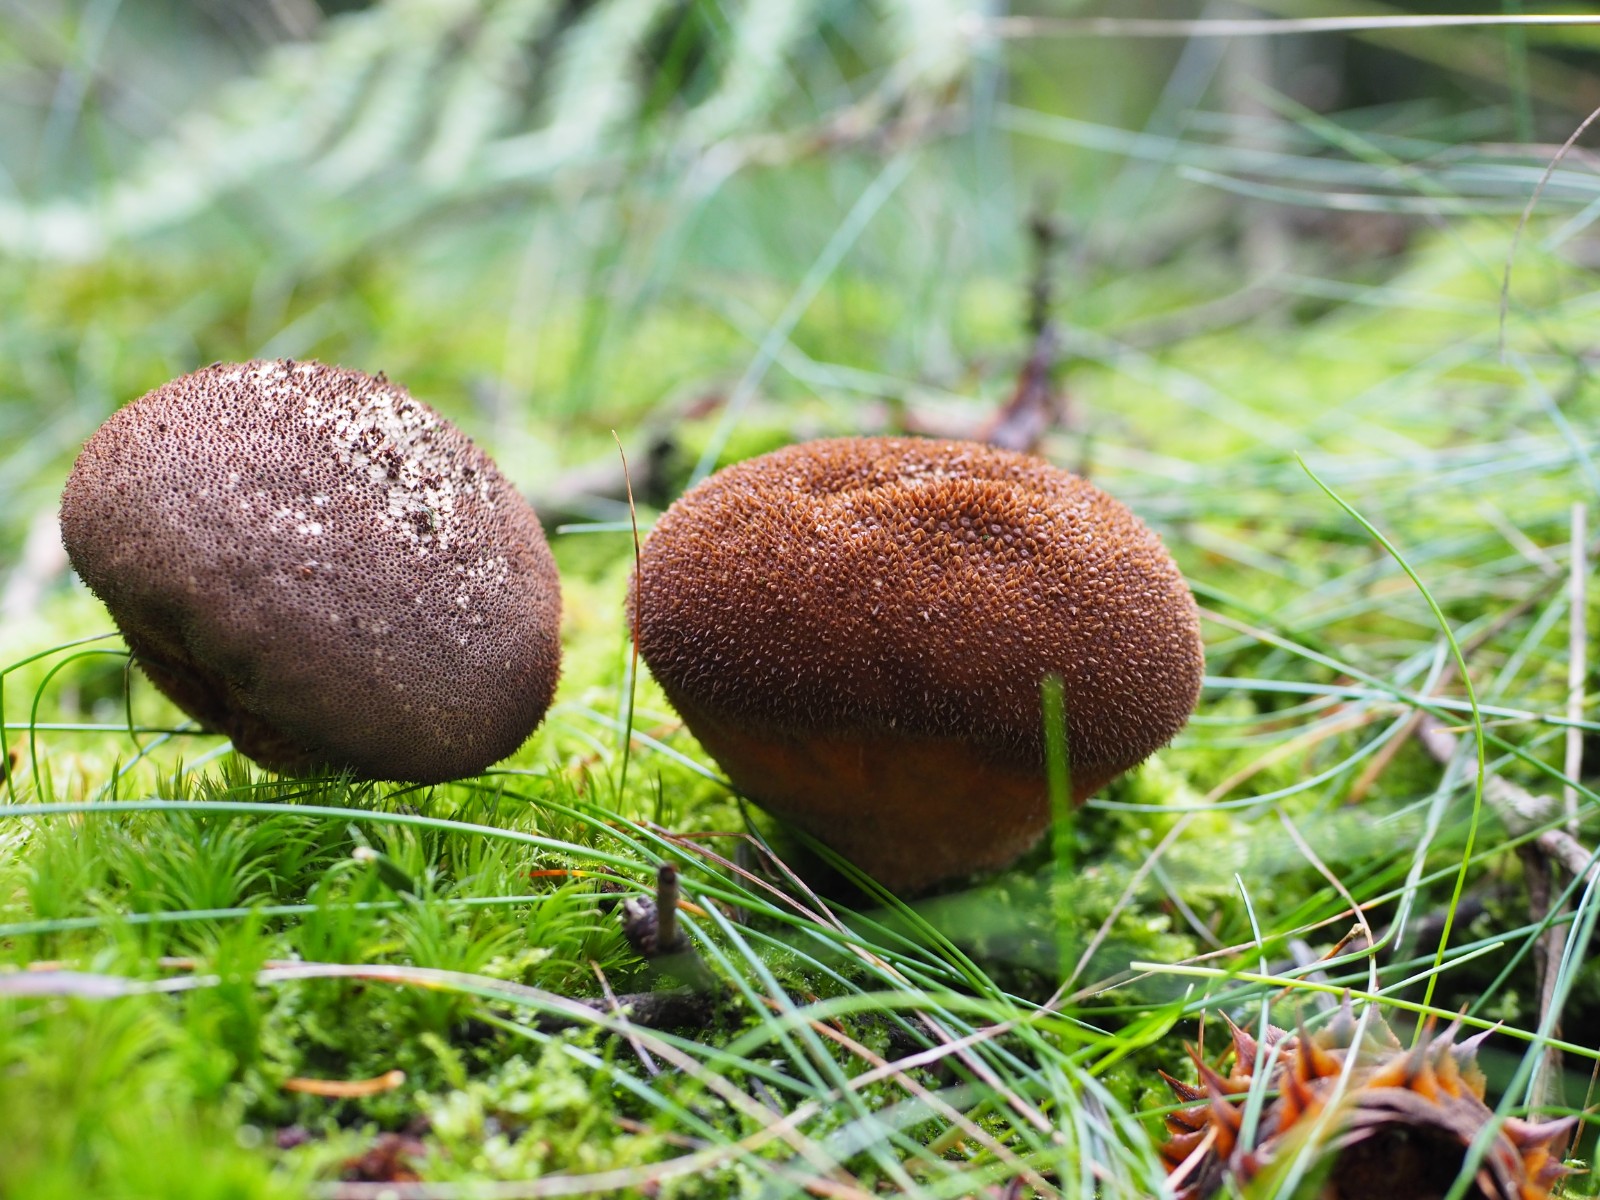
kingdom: Fungi
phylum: Basidiomycota
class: Agaricomycetes
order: Agaricales
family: Lycoperdaceae
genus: Lycoperdon
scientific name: Lycoperdon nigrescens
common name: sortagtig støvbold
